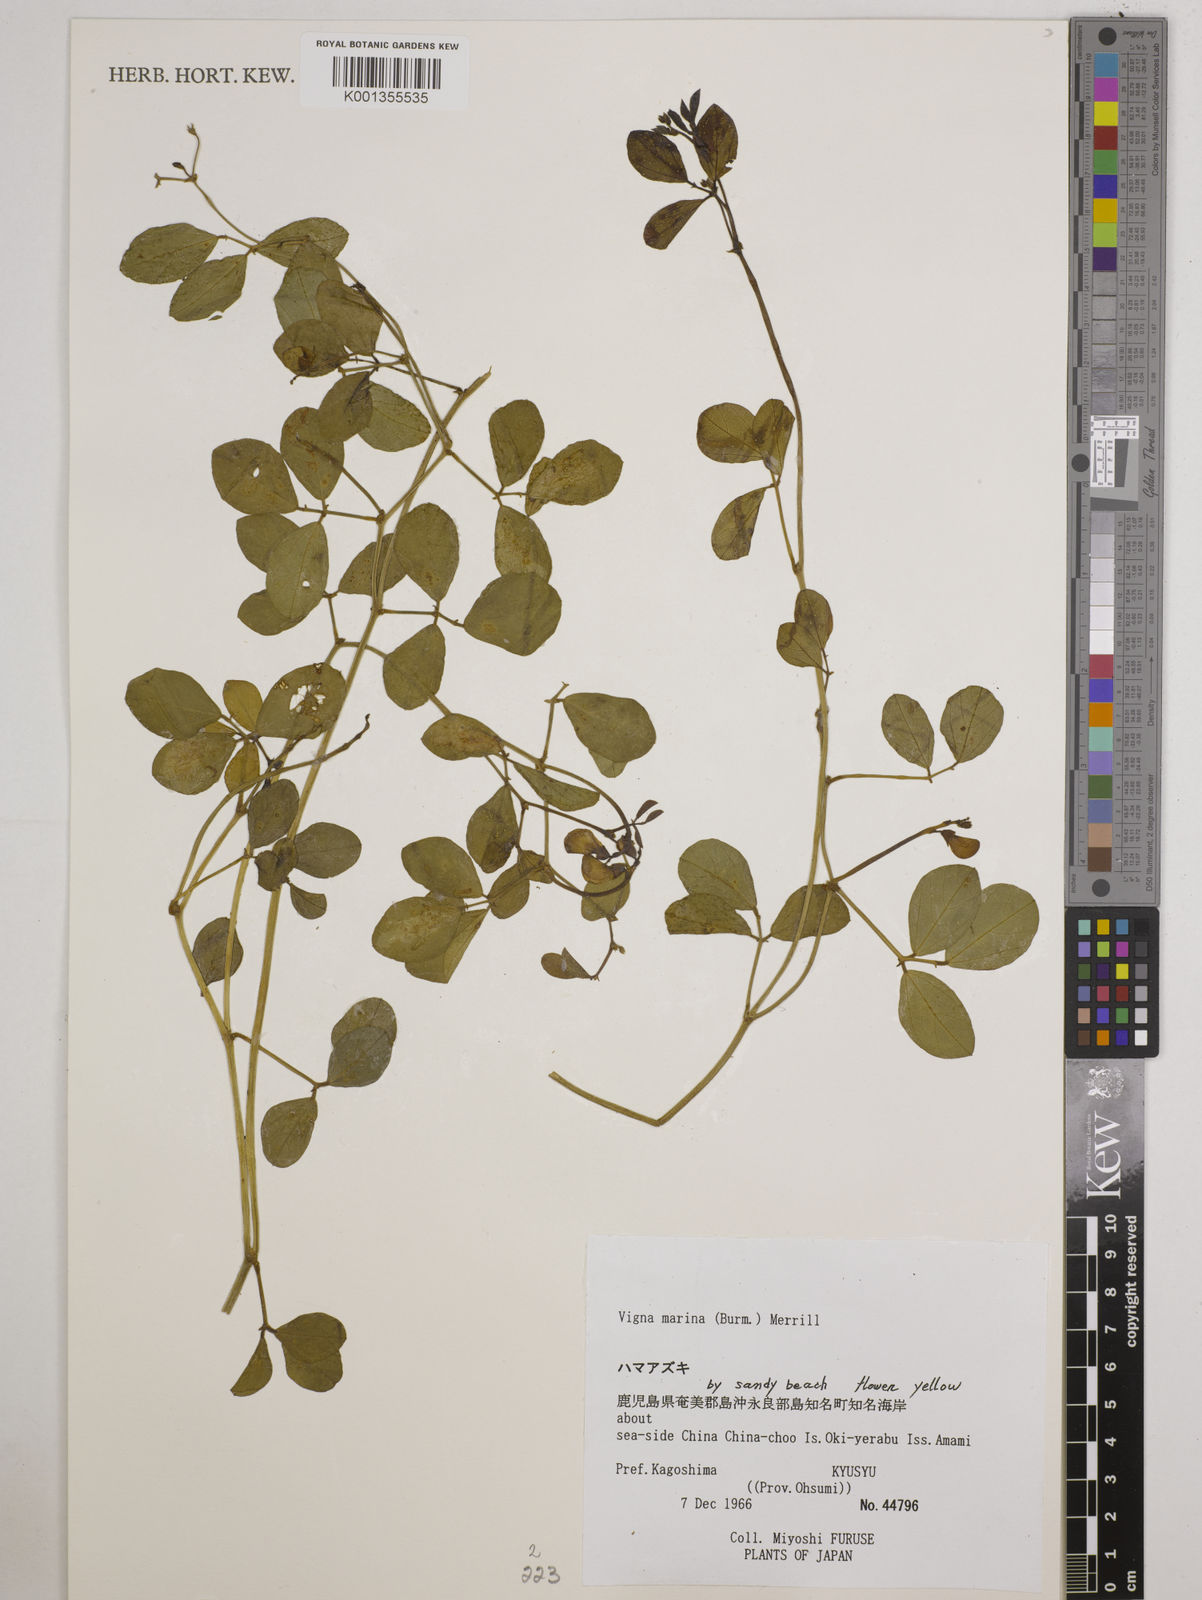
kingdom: Plantae
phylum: Tracheophyta
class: Magnoliopsida
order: Fabales
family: Fabaceae
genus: Vigna
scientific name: Vigna marina
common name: Dune-bean
